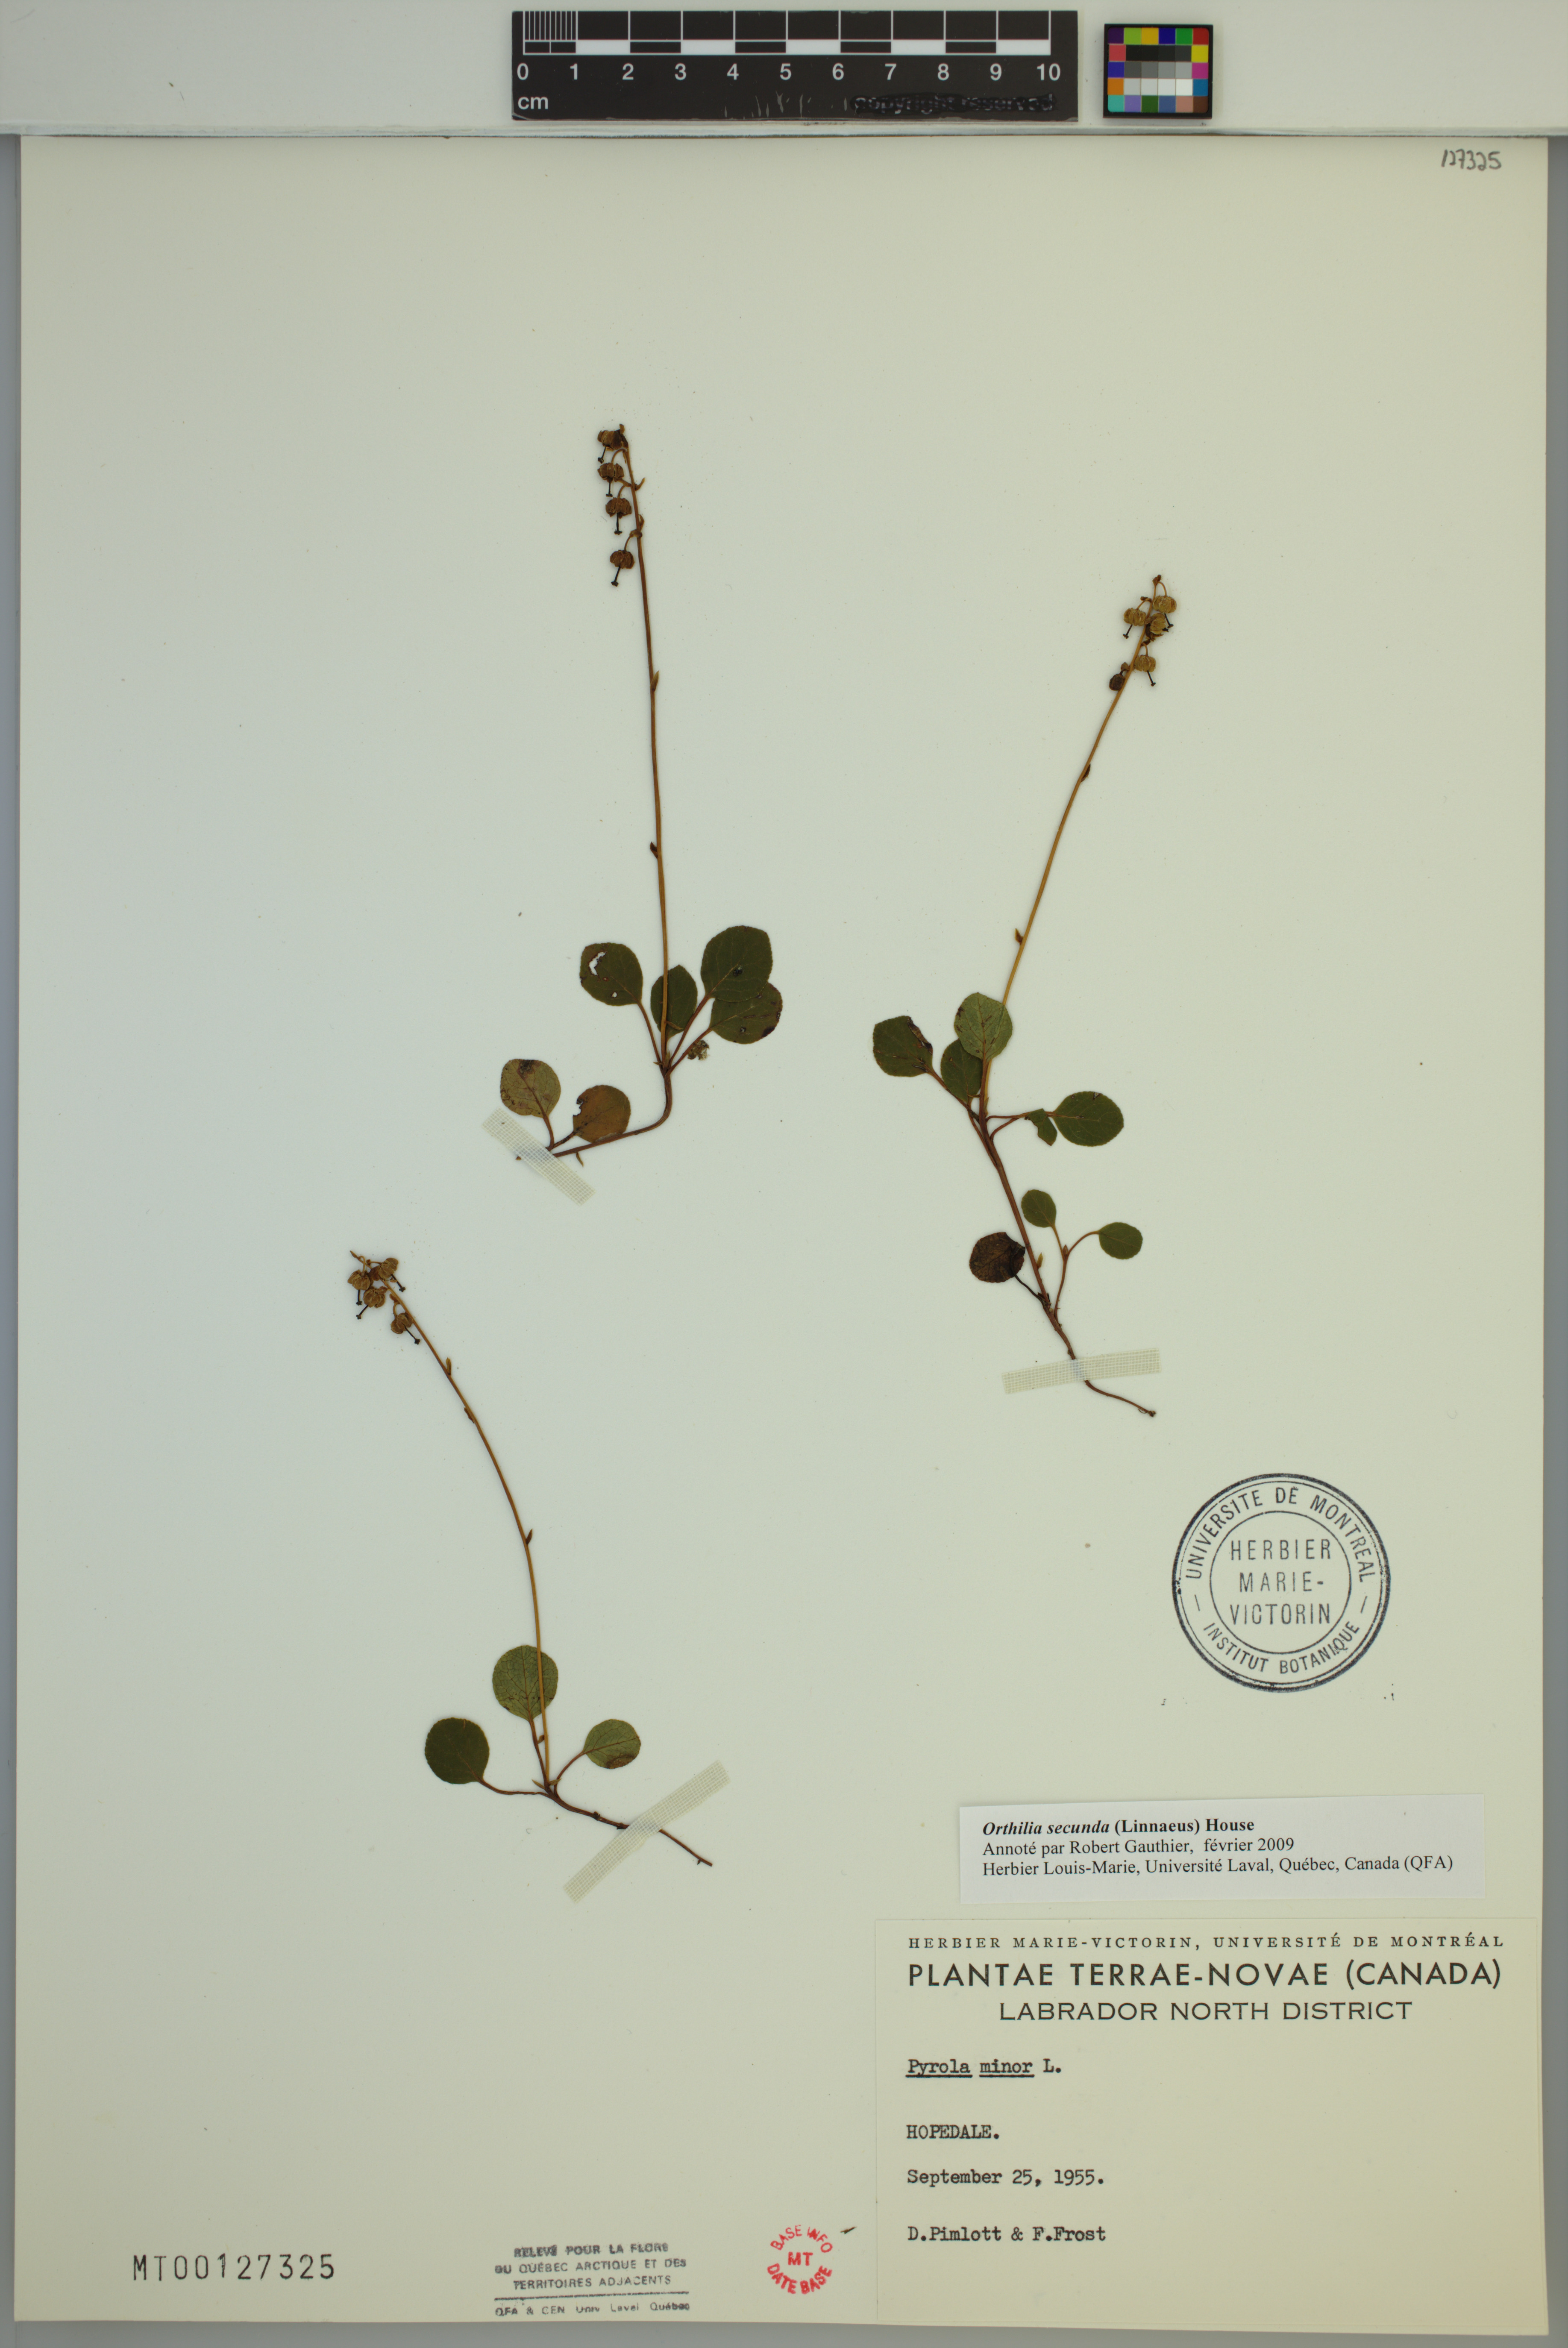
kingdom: Plantae
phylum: Tracheophyta
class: Magnoliopsida
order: Ericales
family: Ericaceae
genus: Orthilia
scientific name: Orthilia secunda
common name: One-sided orthilia
